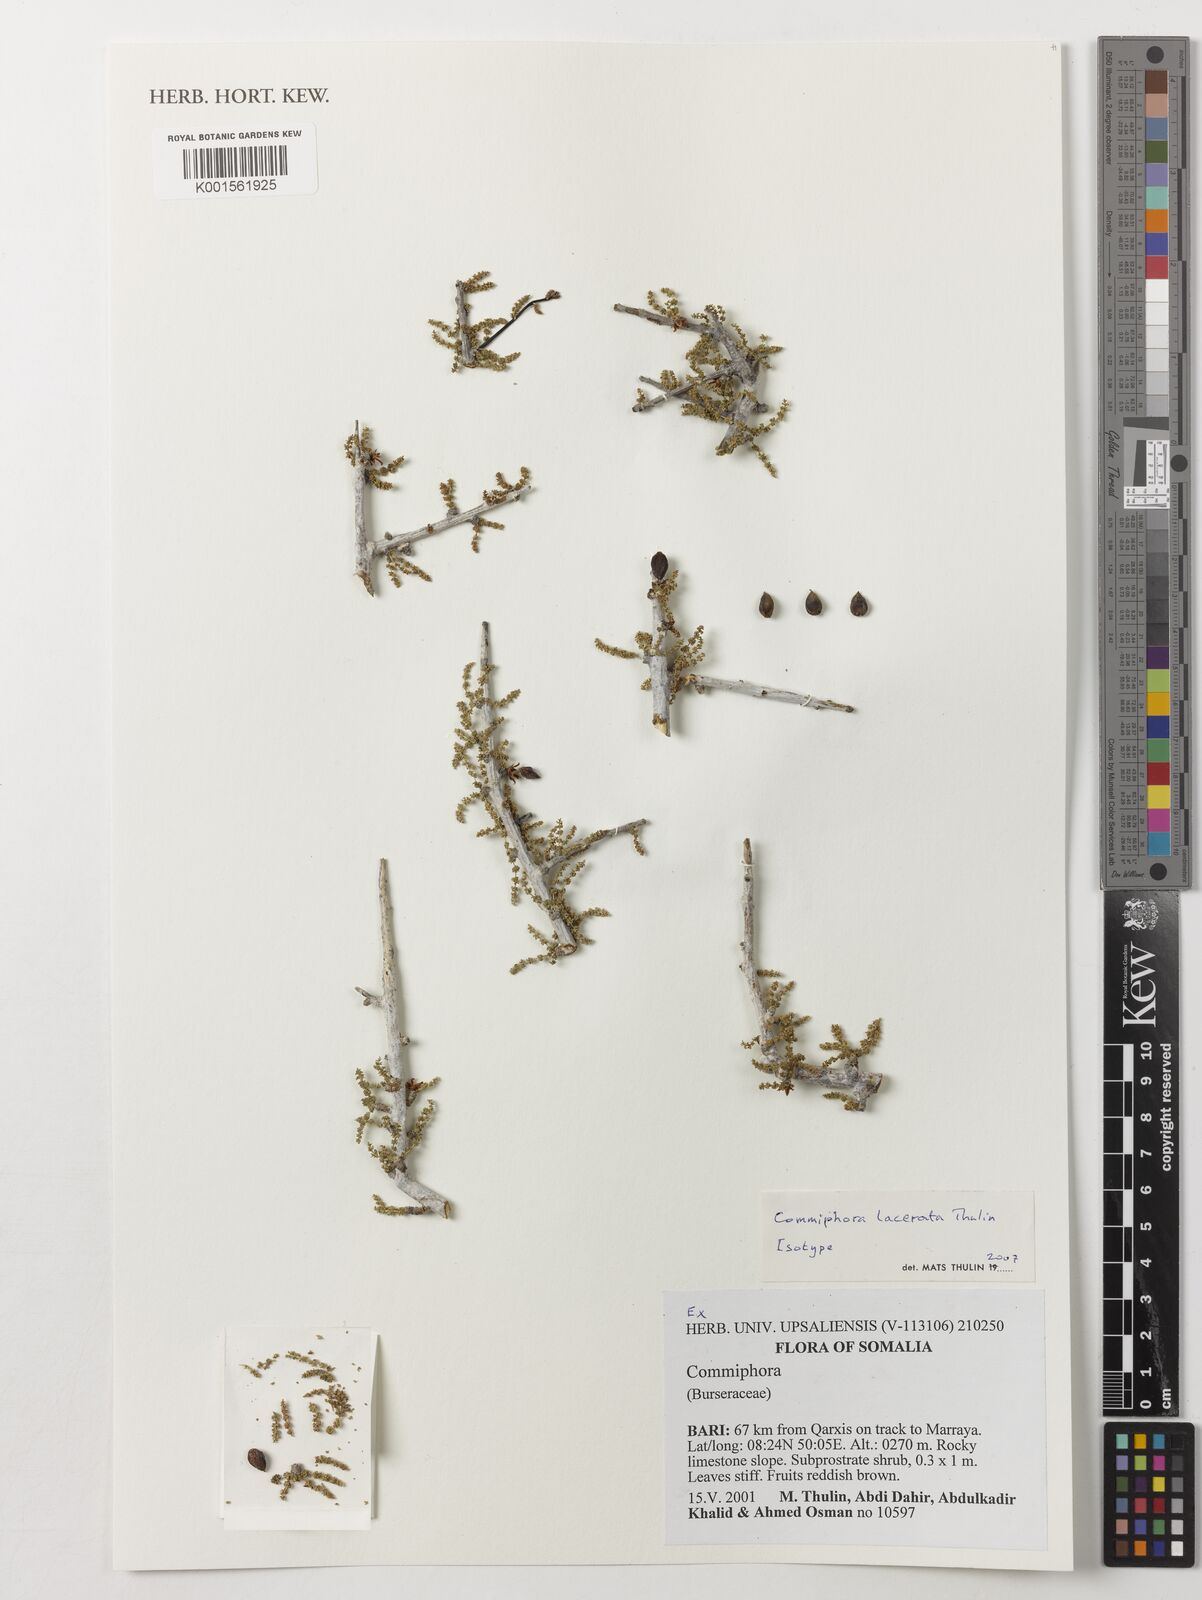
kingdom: Plantae
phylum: Tracheophyta
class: Magnoliopsida
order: Sapindales
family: Burseraceae
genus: Commiphora
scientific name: Commiphora lacerata
